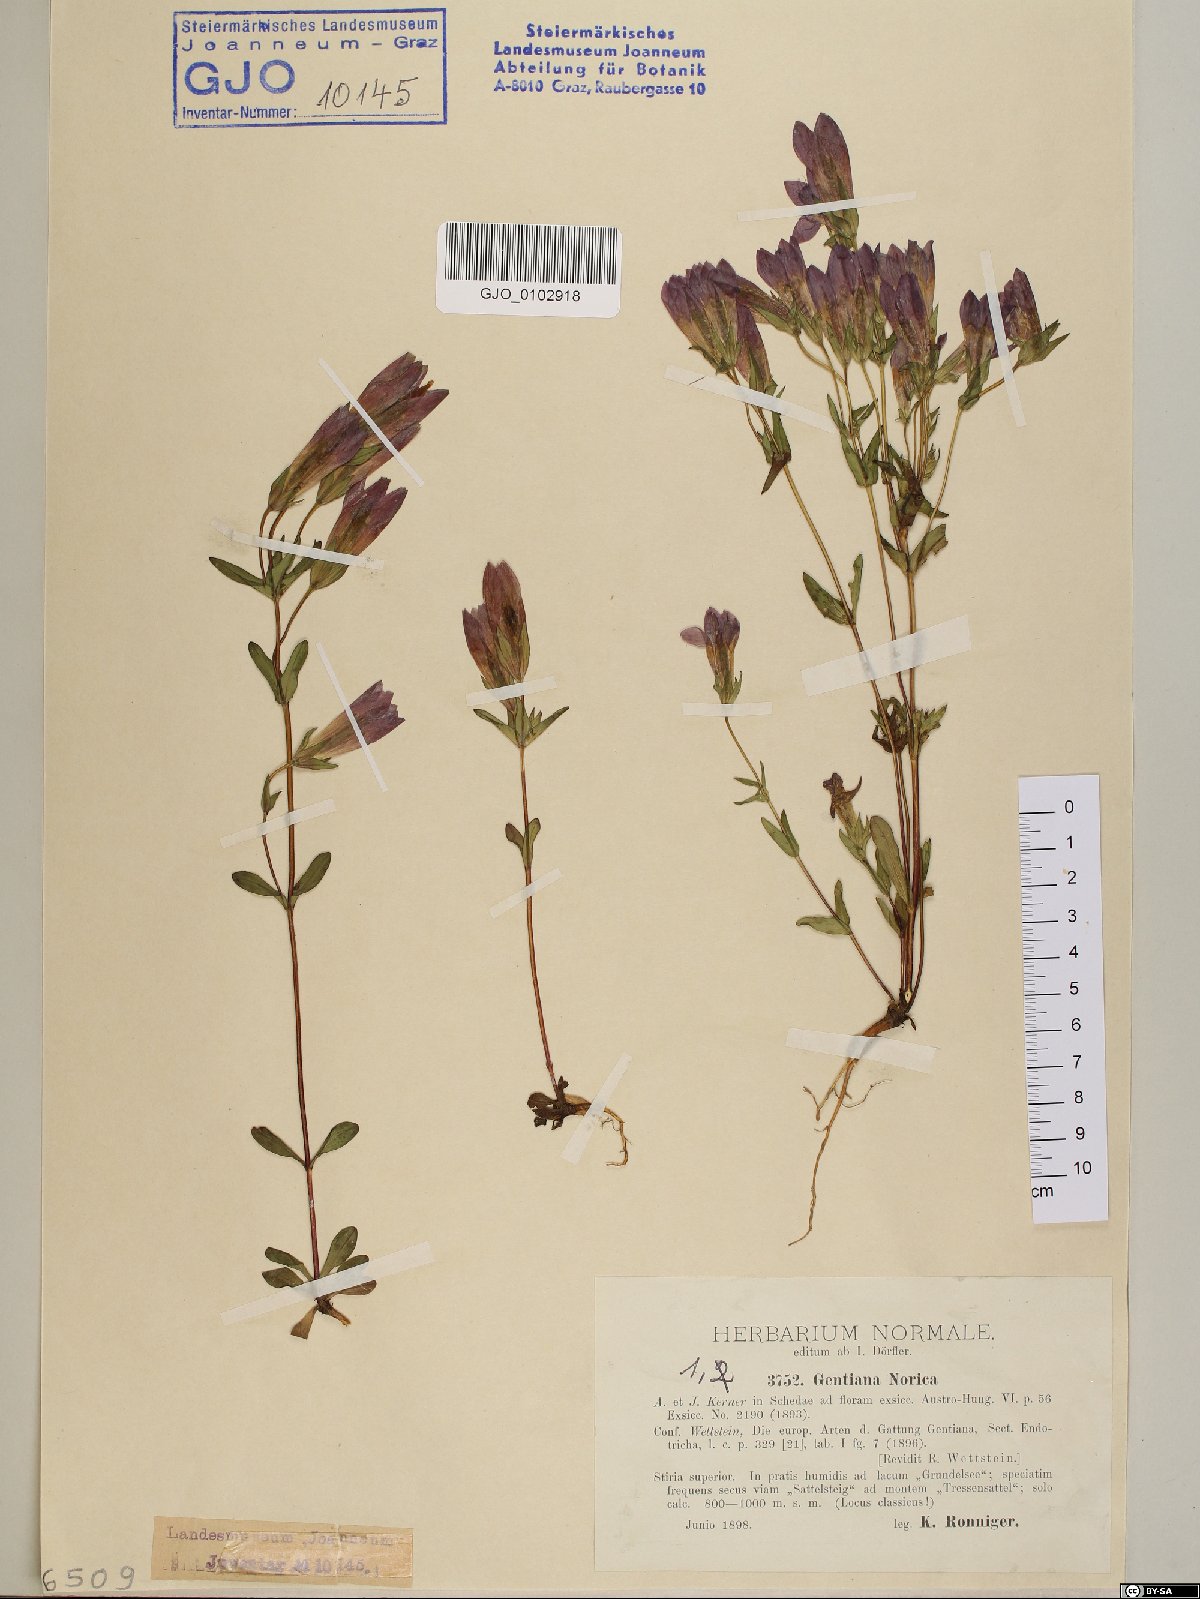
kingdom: Plantae
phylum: Tracheophyta
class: Magnoliopsida
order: Gentianales
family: Gentianaceae
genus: Gentianella
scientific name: Gentianella obtusifolia
